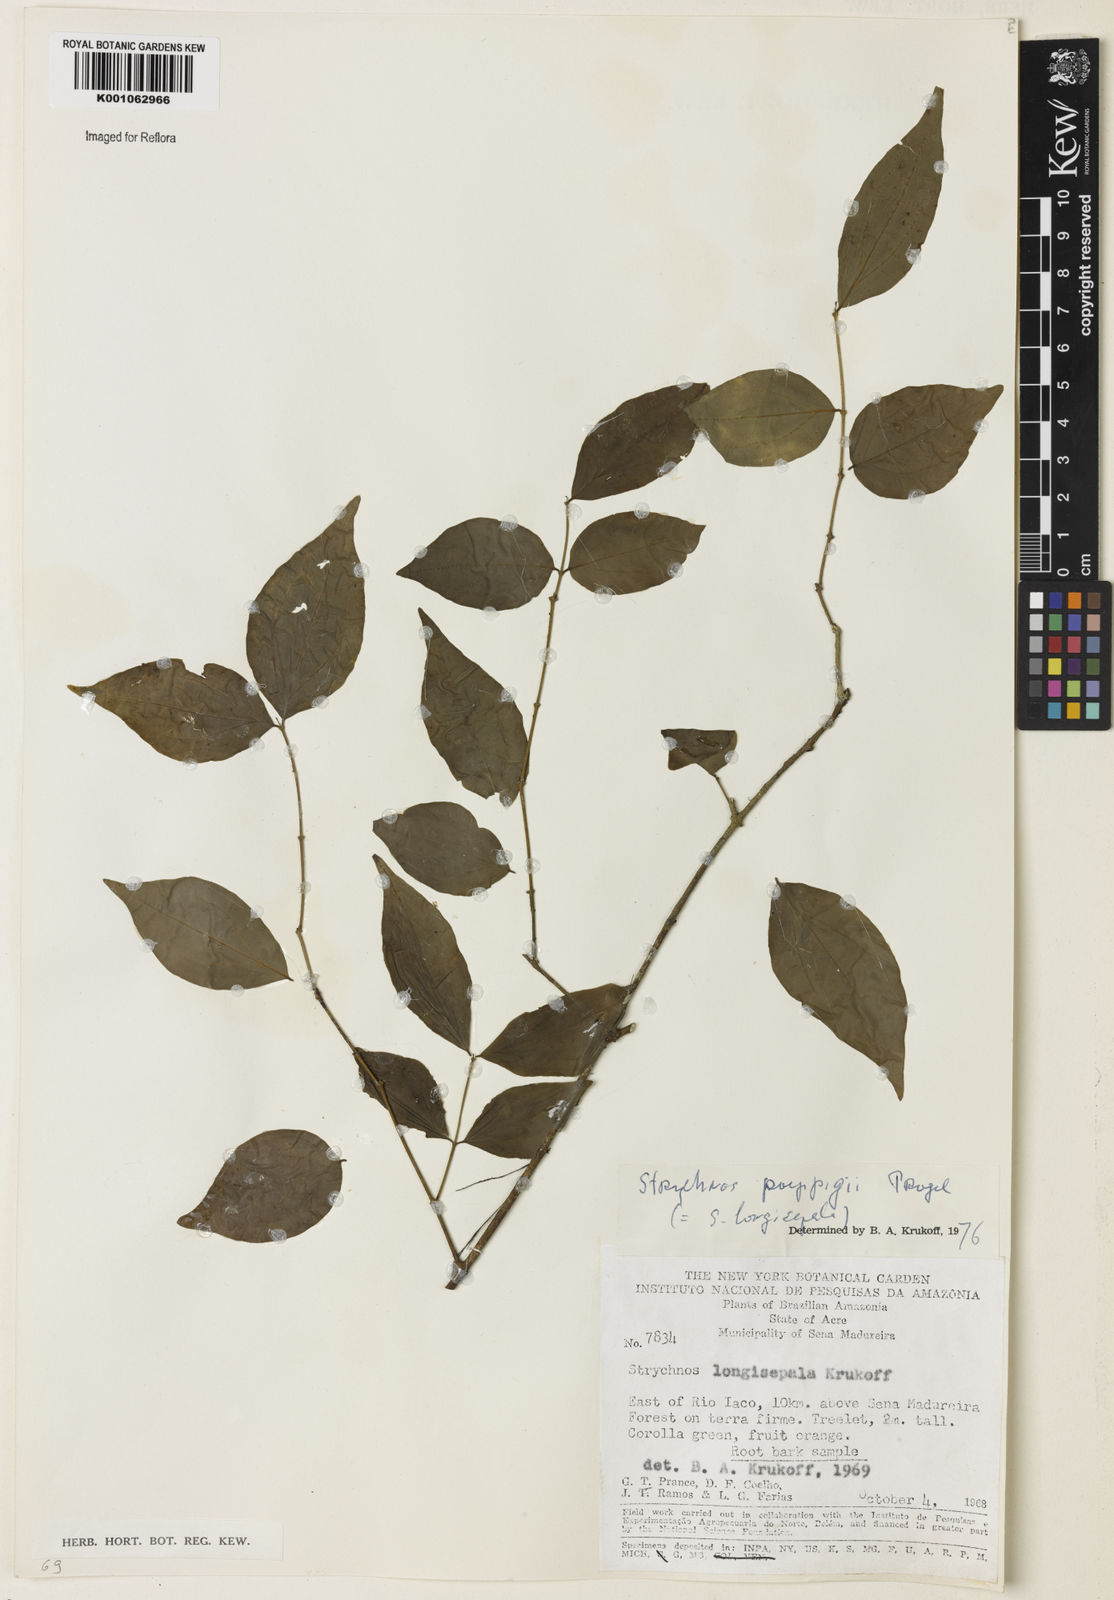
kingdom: Plantae
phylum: Tracheophyta
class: Magnoliopsida
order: Gentianales
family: Loganiaceae
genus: Strychnos
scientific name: Strychnos poeppigii
